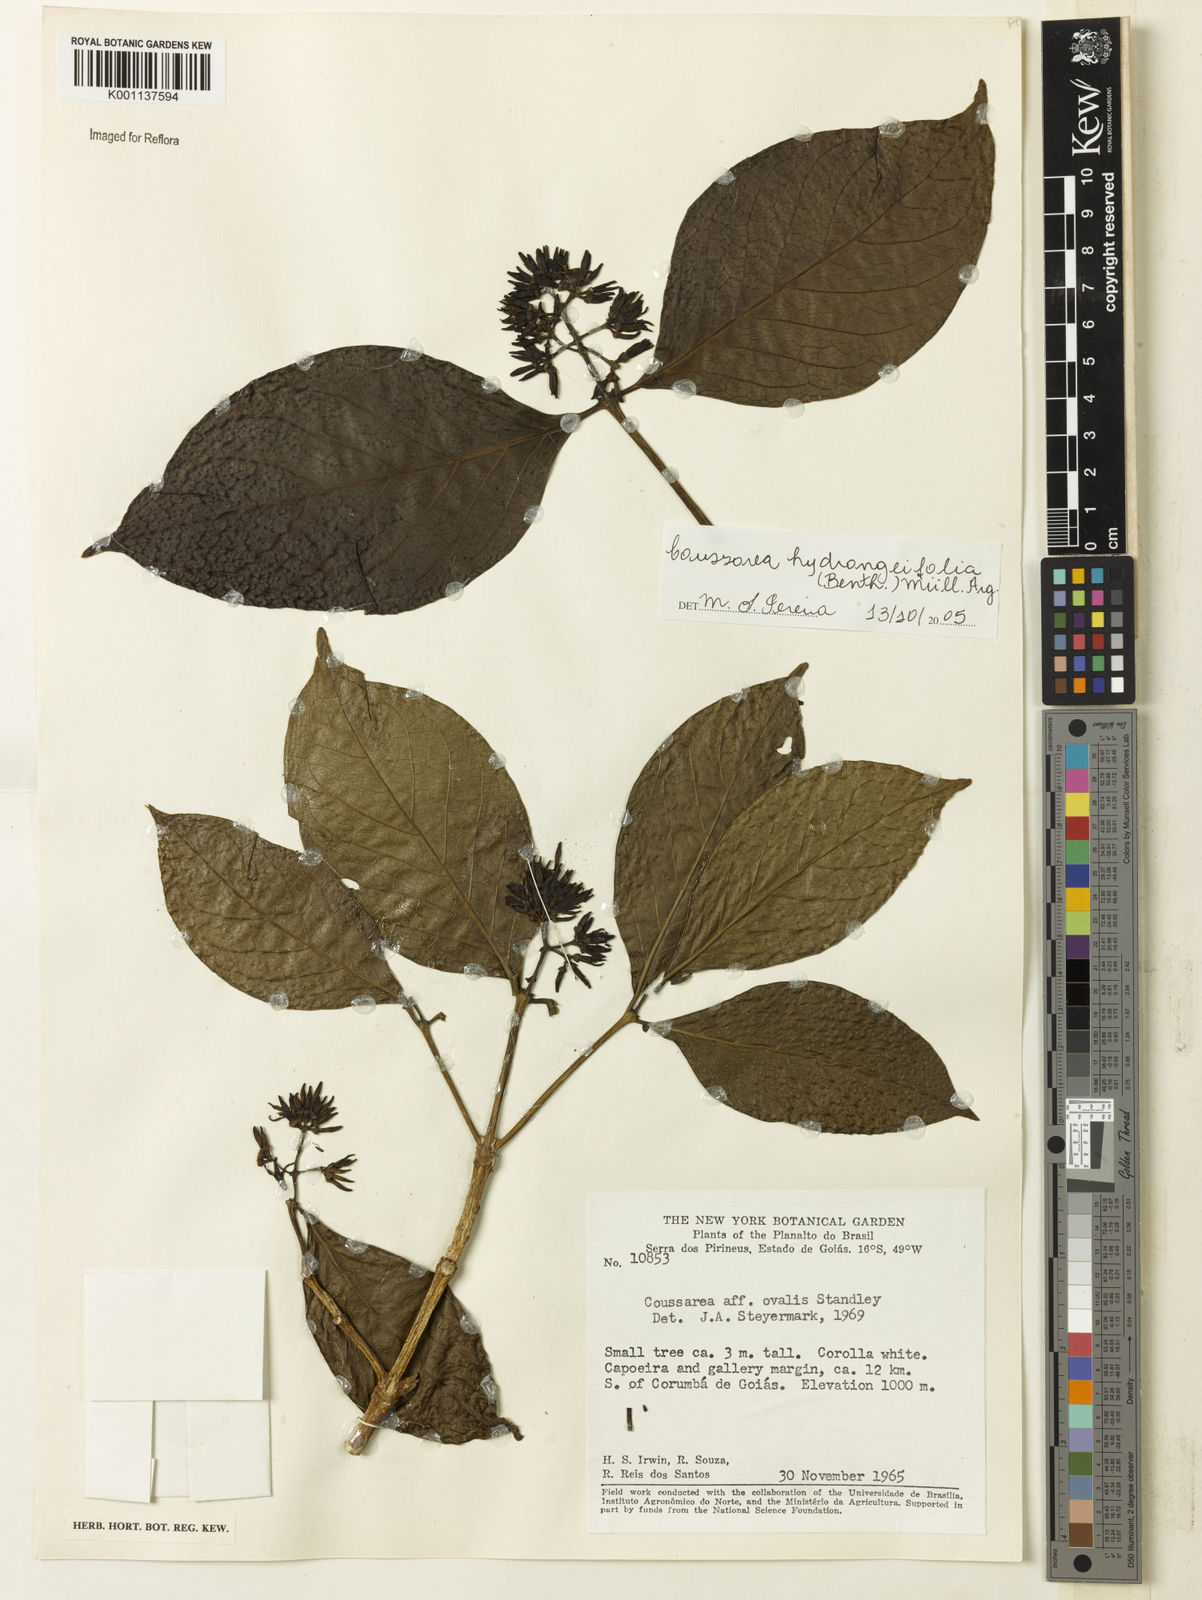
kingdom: Plantae
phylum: Tracheophyta
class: Magnoliopsida
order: Gentianales
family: Rubiaceae
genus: Coussarea
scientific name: Coussarea
